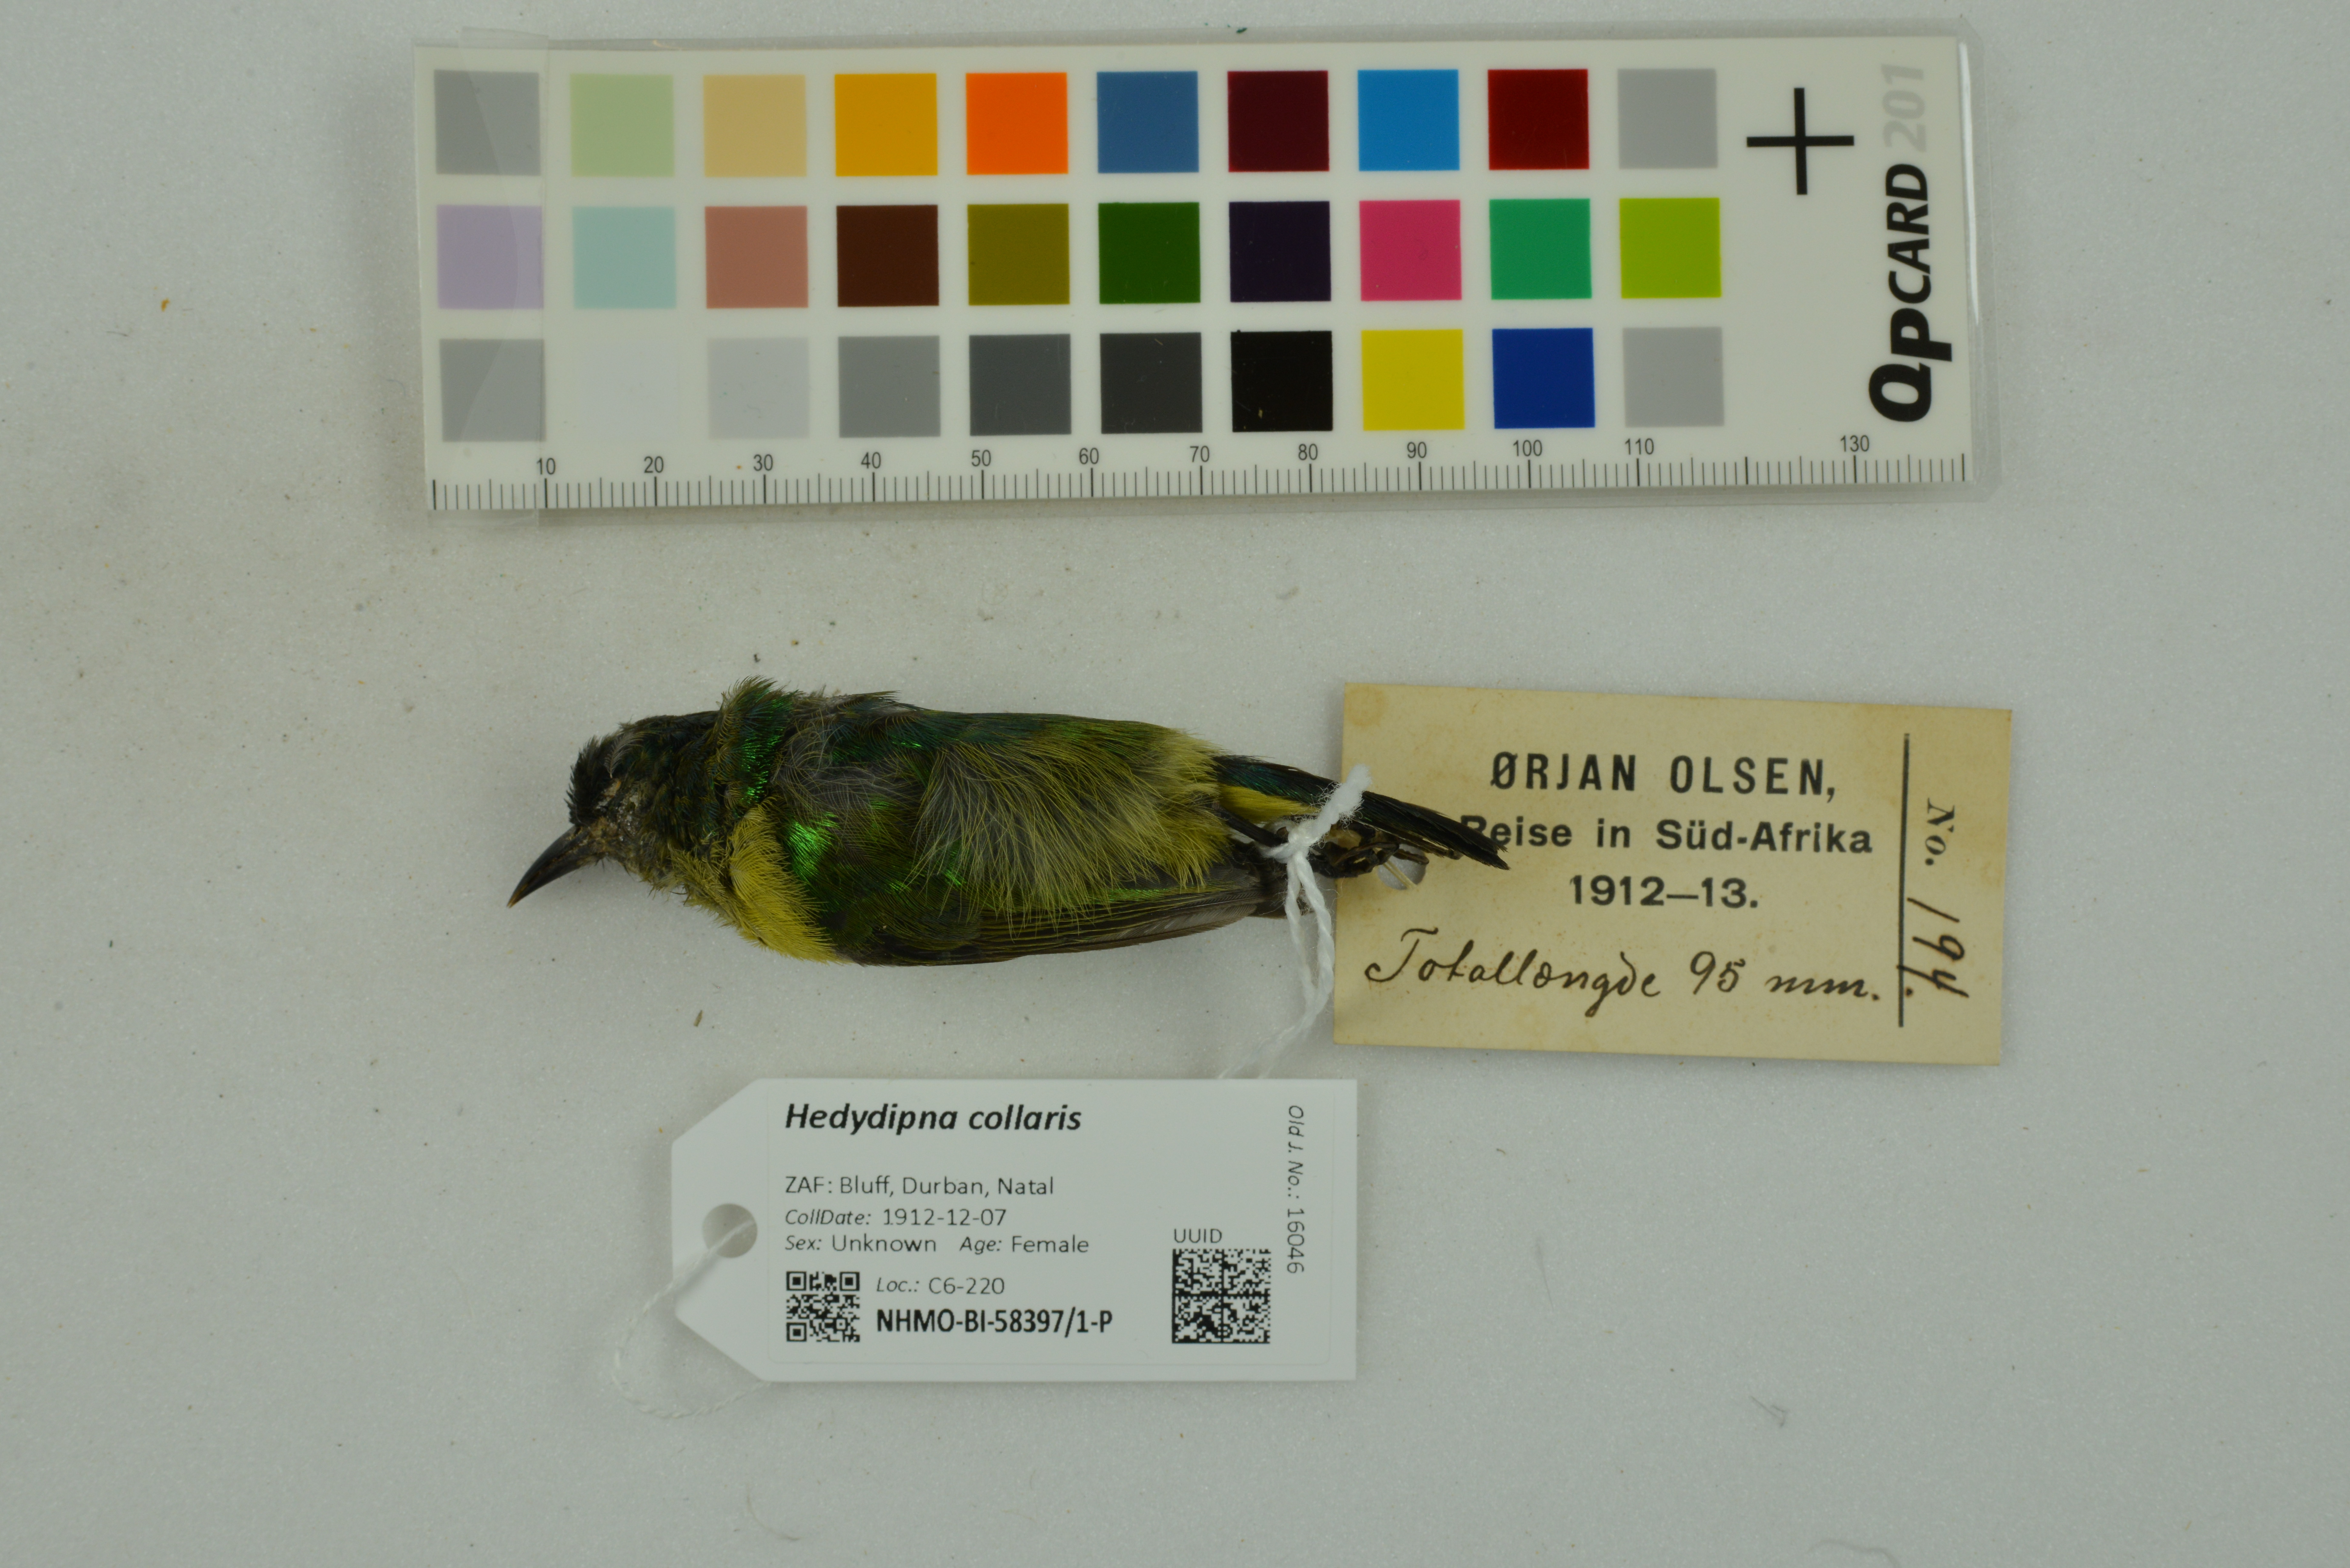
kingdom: Animalia
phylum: Chordata
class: Aves
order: Passeriformes
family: Nectariniidae
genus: Hedydipna
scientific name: Hedydipna collaris
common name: Collared sunbird
